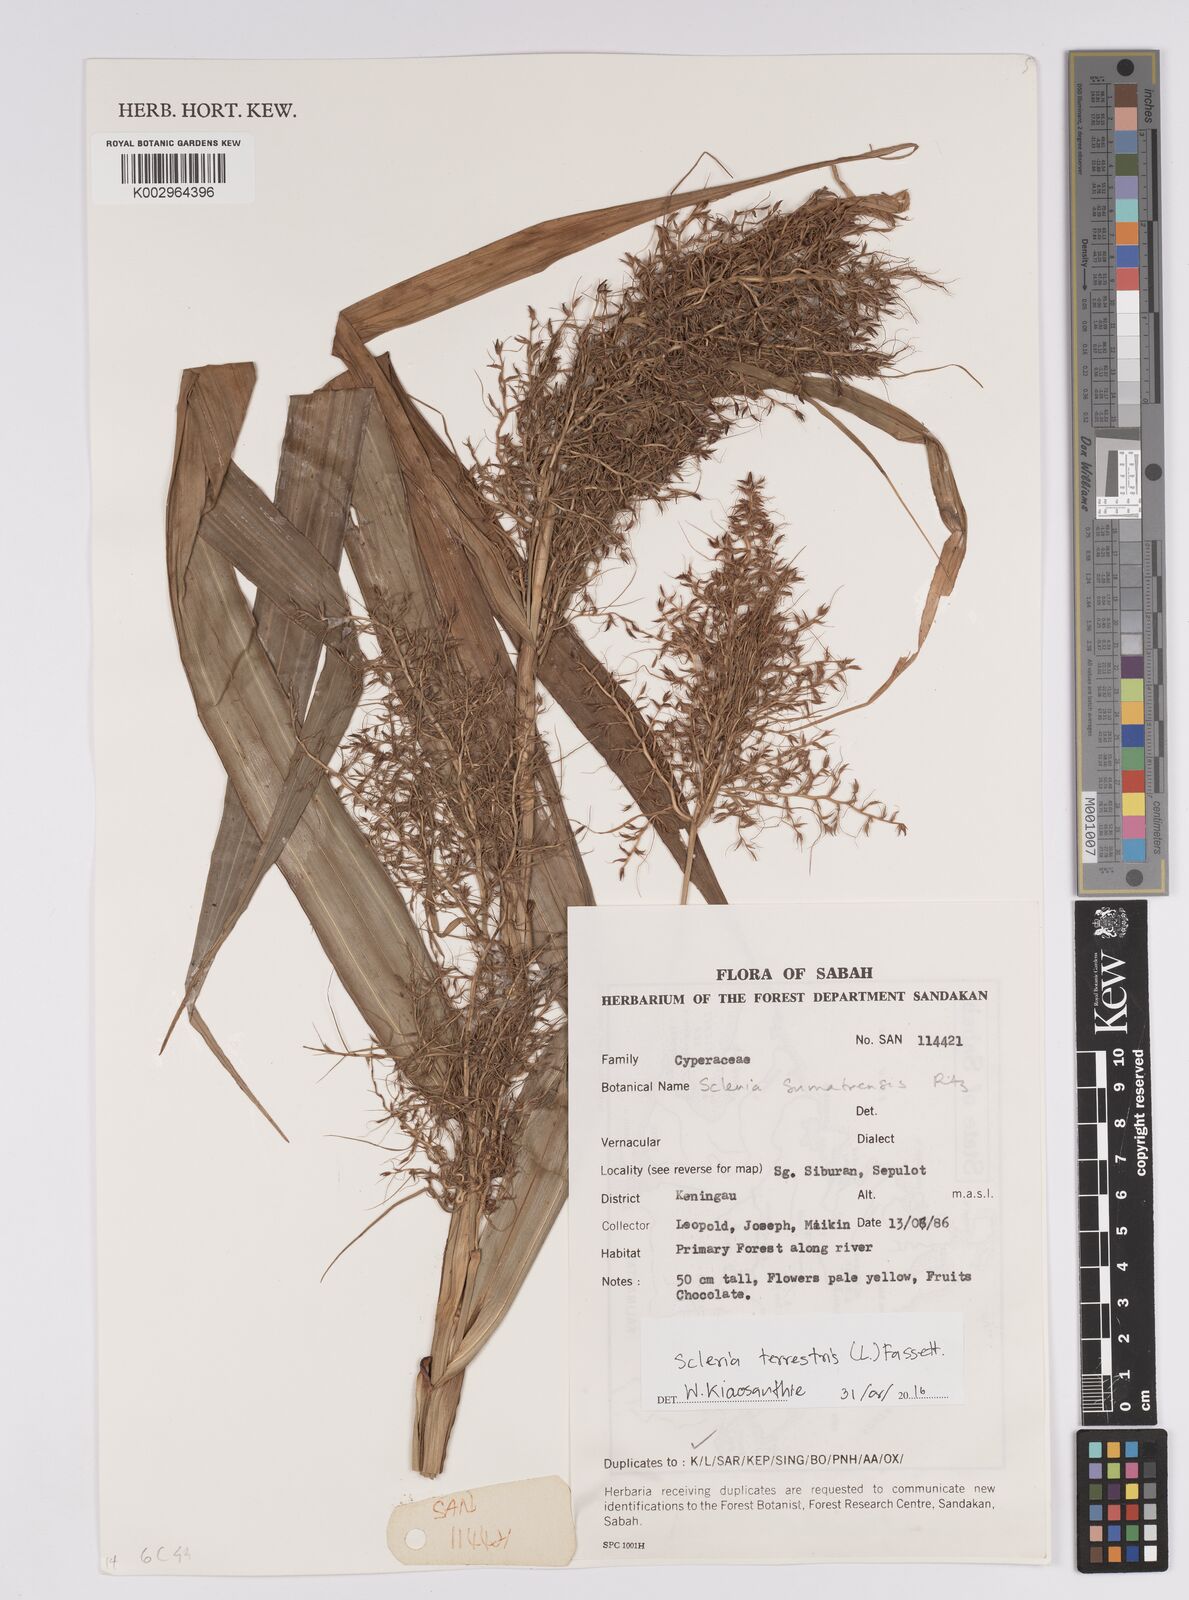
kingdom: Plantae
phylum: Tracheophyta
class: Liliopsida
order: Poales
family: Cyperaceae
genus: Scleria
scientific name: Scleria terrestris
